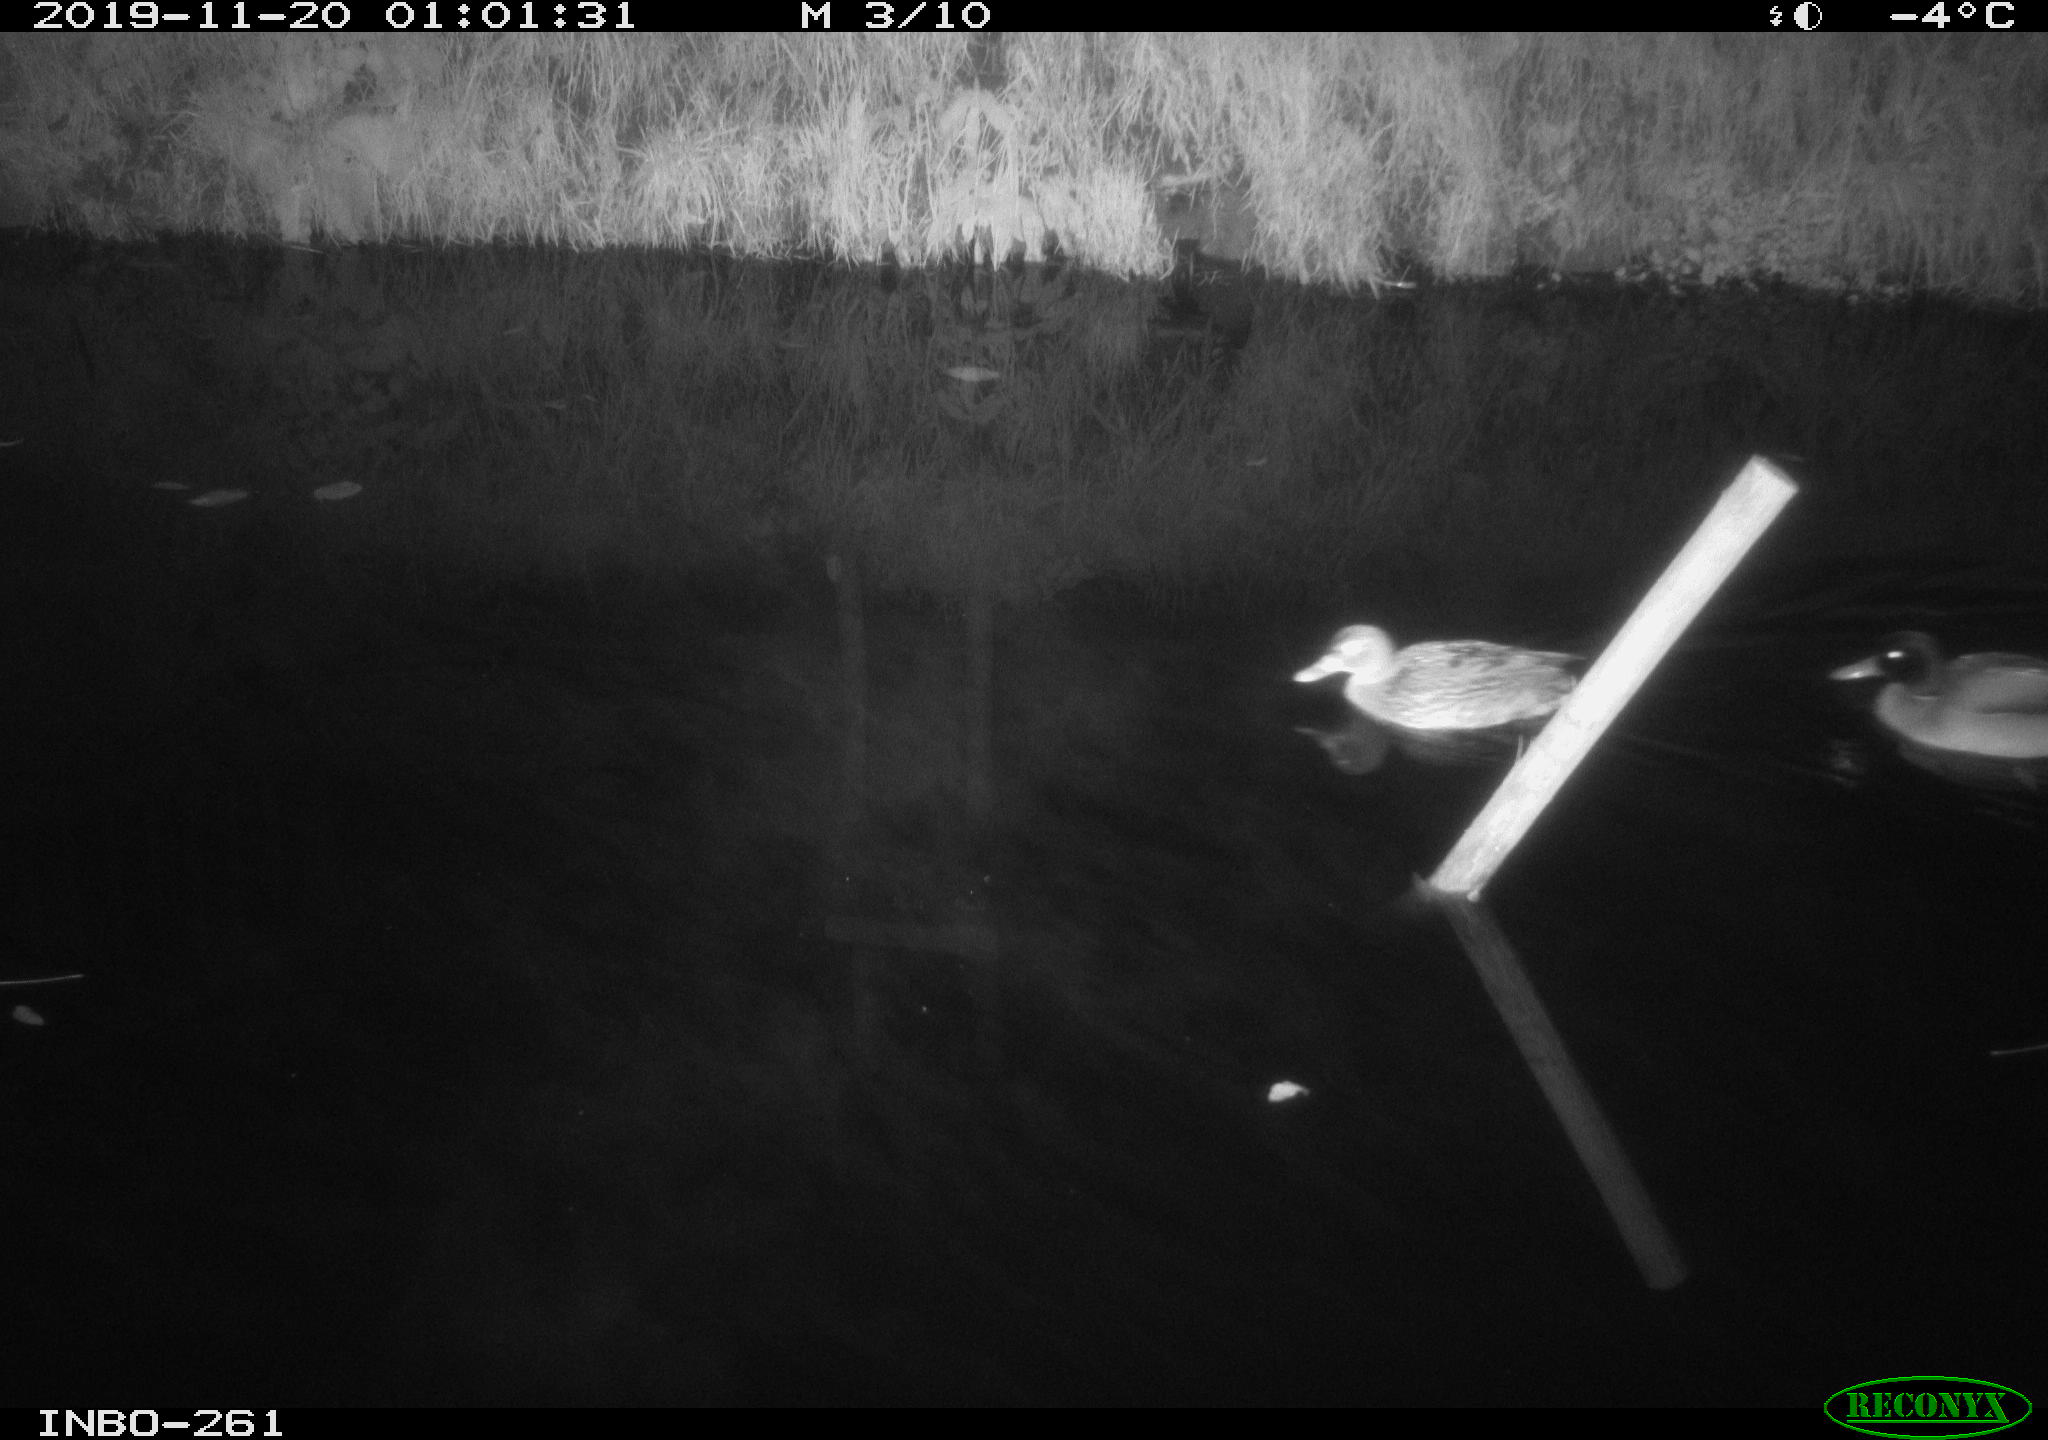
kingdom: Animalia
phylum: Chordata
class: Aves
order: Anseriformes
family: Anatidae
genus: Anas
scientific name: Anas platyrhynchos
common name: Mallard
